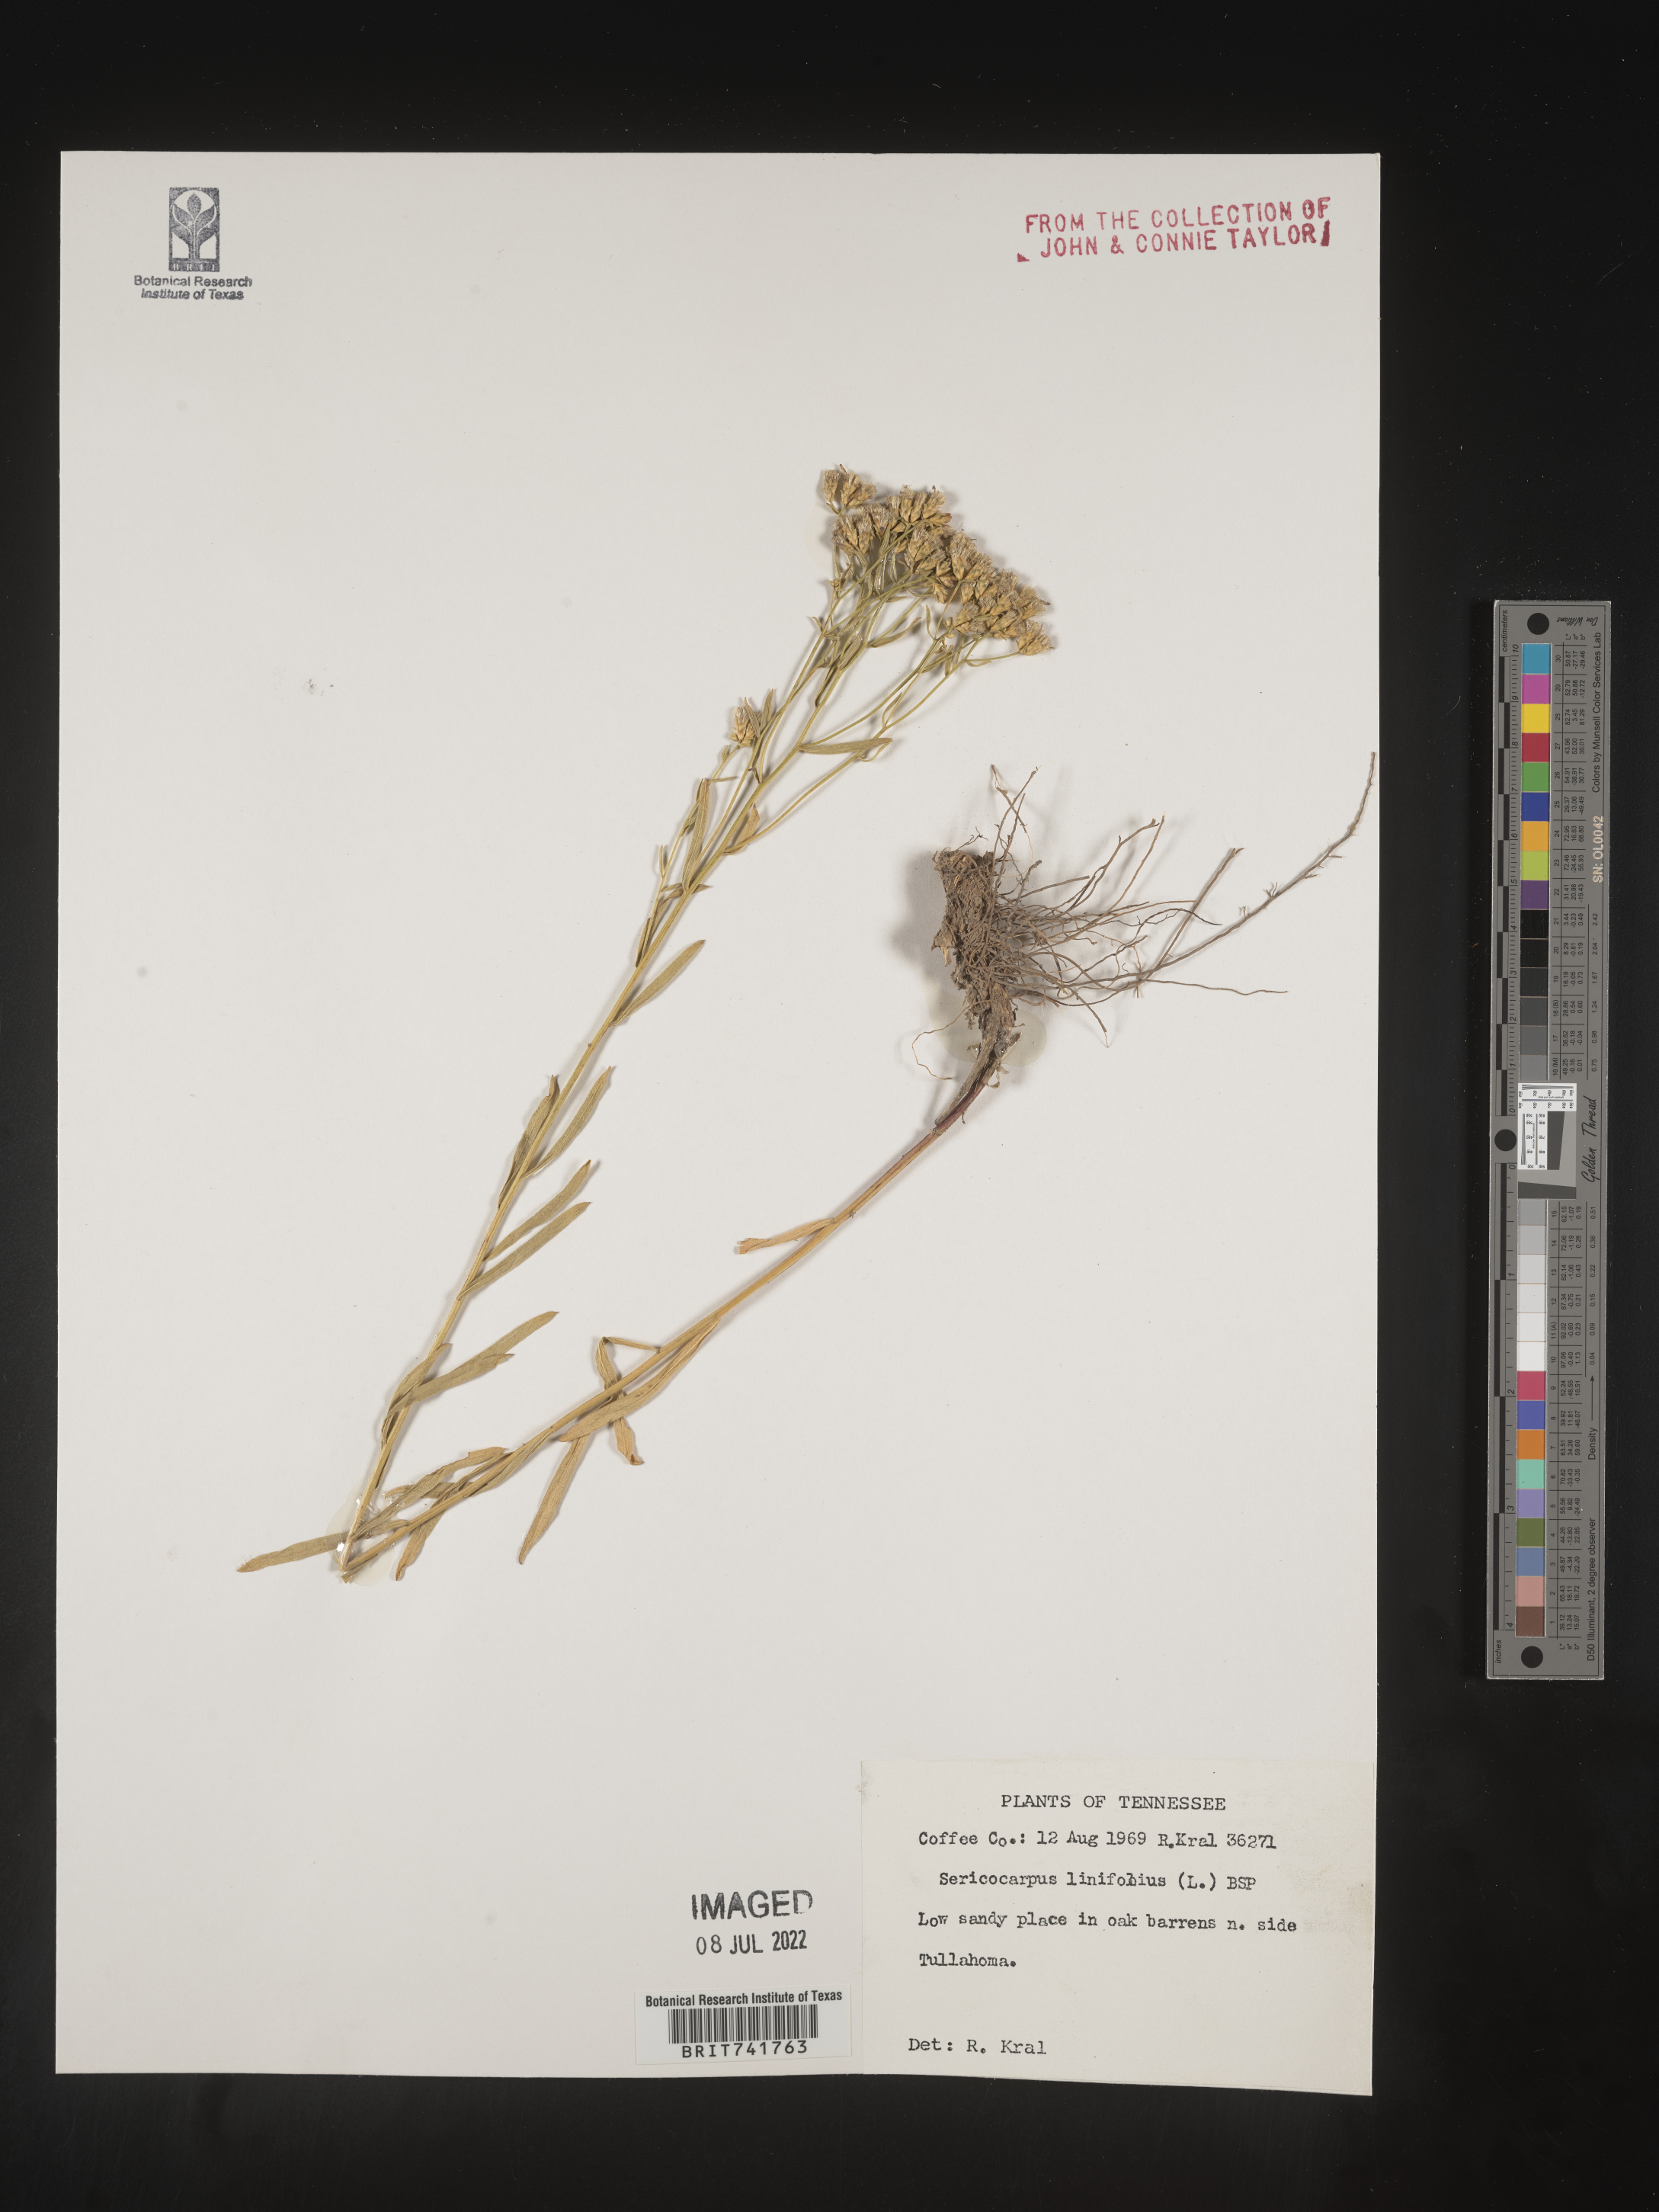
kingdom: Plantae
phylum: Tracheophyta
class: Magnoliopsida
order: Asterales
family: Asteraceae
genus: Sericocarpus
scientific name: Sericocarpus linifolius
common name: Narrow-leaf aster
